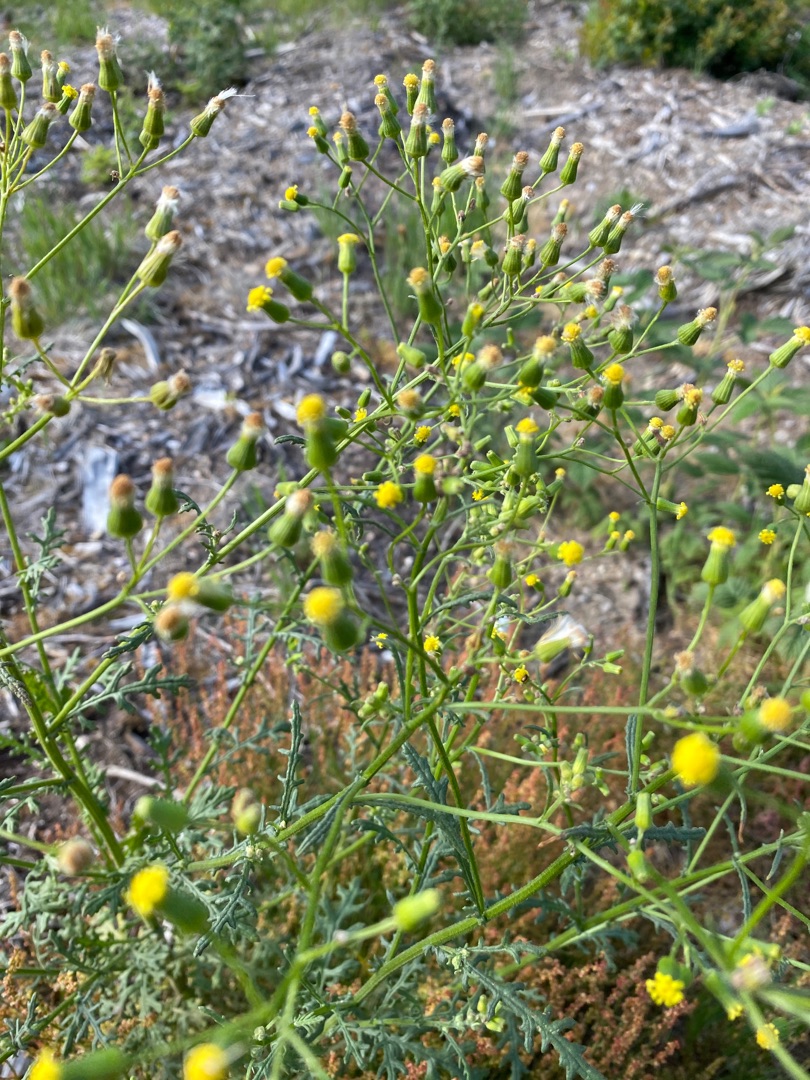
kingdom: Plantae
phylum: Tracheophyta
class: Magnoliopsida
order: Asterales
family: Asteraceae
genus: Senecio
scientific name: Senecio sylvaticus
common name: Skov-brandbæger
